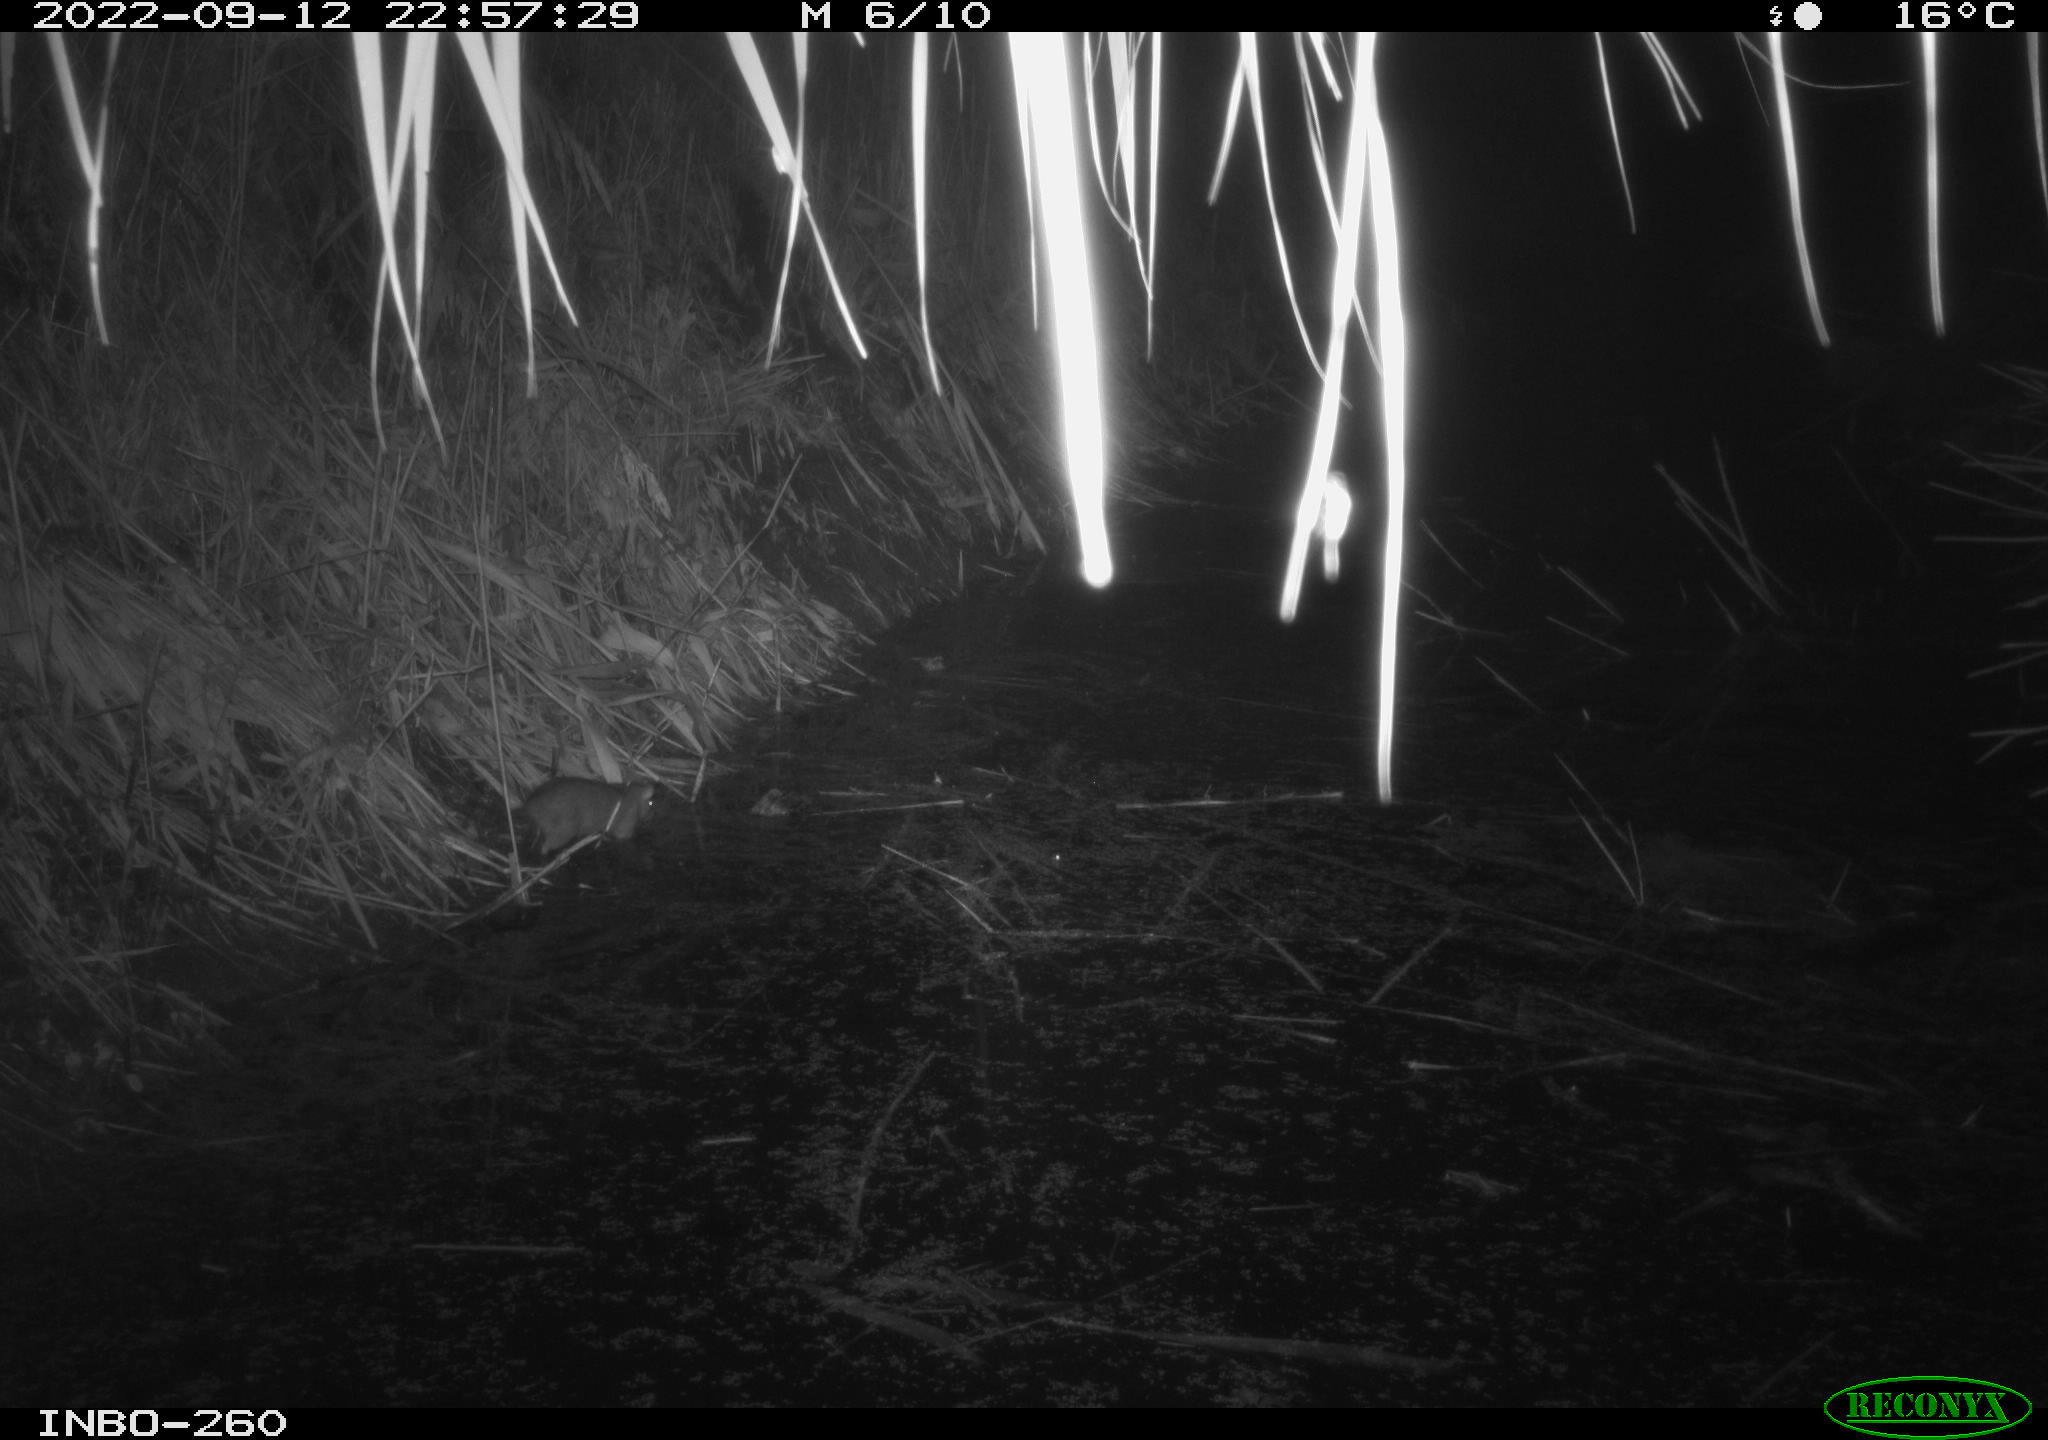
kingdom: Animalia
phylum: Chordata
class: Mammalia
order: Rodentia
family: Muridae
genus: Rattus
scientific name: Rattus norvegicus
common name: Brown rat
